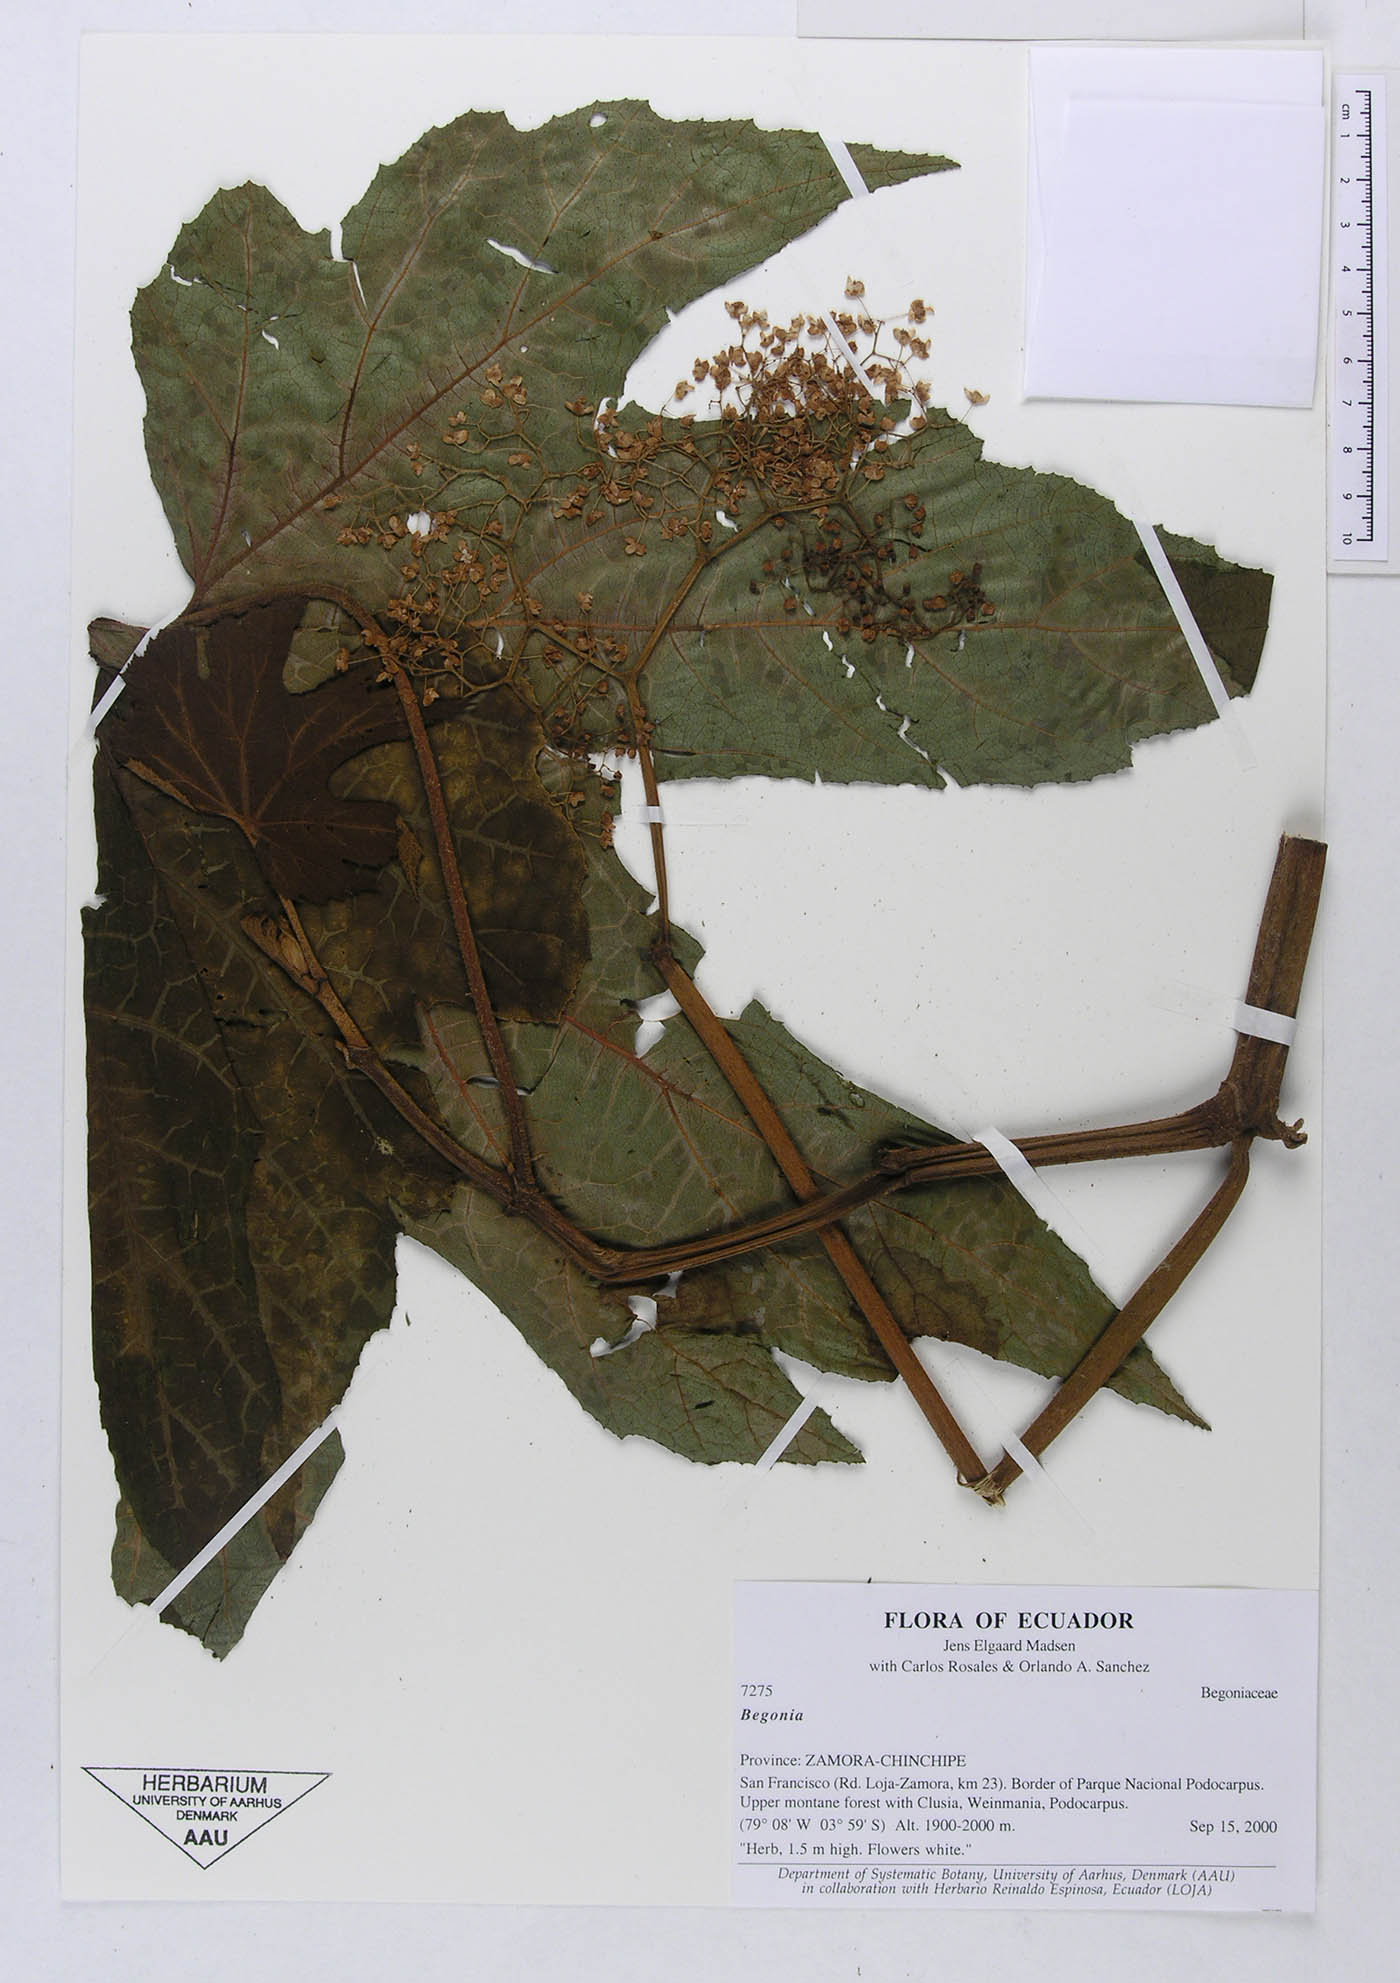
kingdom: Plantae
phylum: Tracheophyta
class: Magnoliopsida
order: Cucurbitales
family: Begoniaceae
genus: Begonia
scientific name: Begonia parviflora
